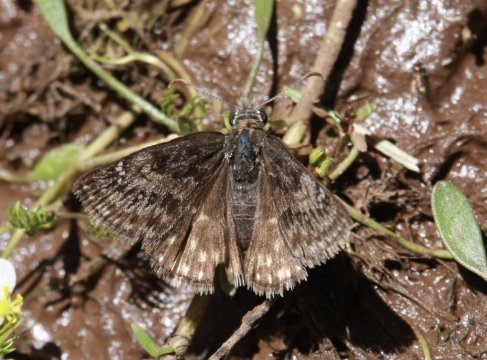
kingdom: Animalia
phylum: Arthropoda
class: Insecta
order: Lepidoptera
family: Hesperiidae
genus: Erynnis
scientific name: Erynnis telemachus
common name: Rocky Mountain Duskywing
